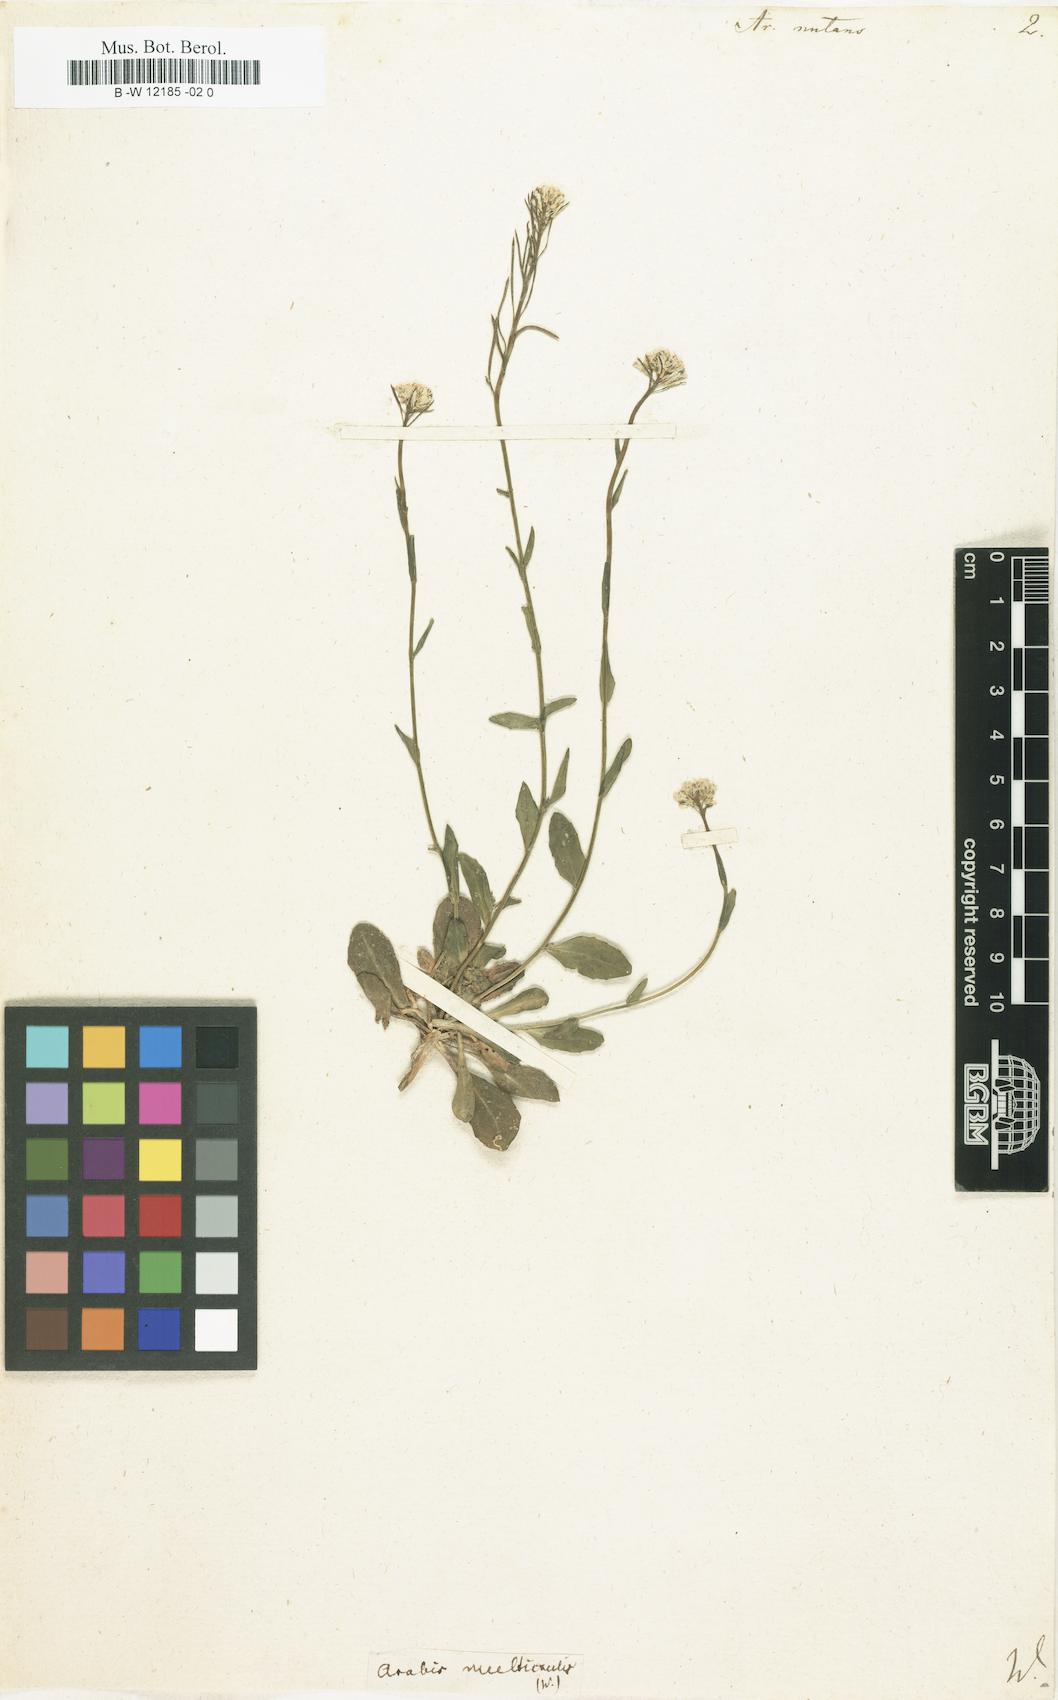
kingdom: Plantae
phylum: Tracheophyta
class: Magnoliopsida
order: Brassicales
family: Brassicaceae
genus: Arabis
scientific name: Arabis
